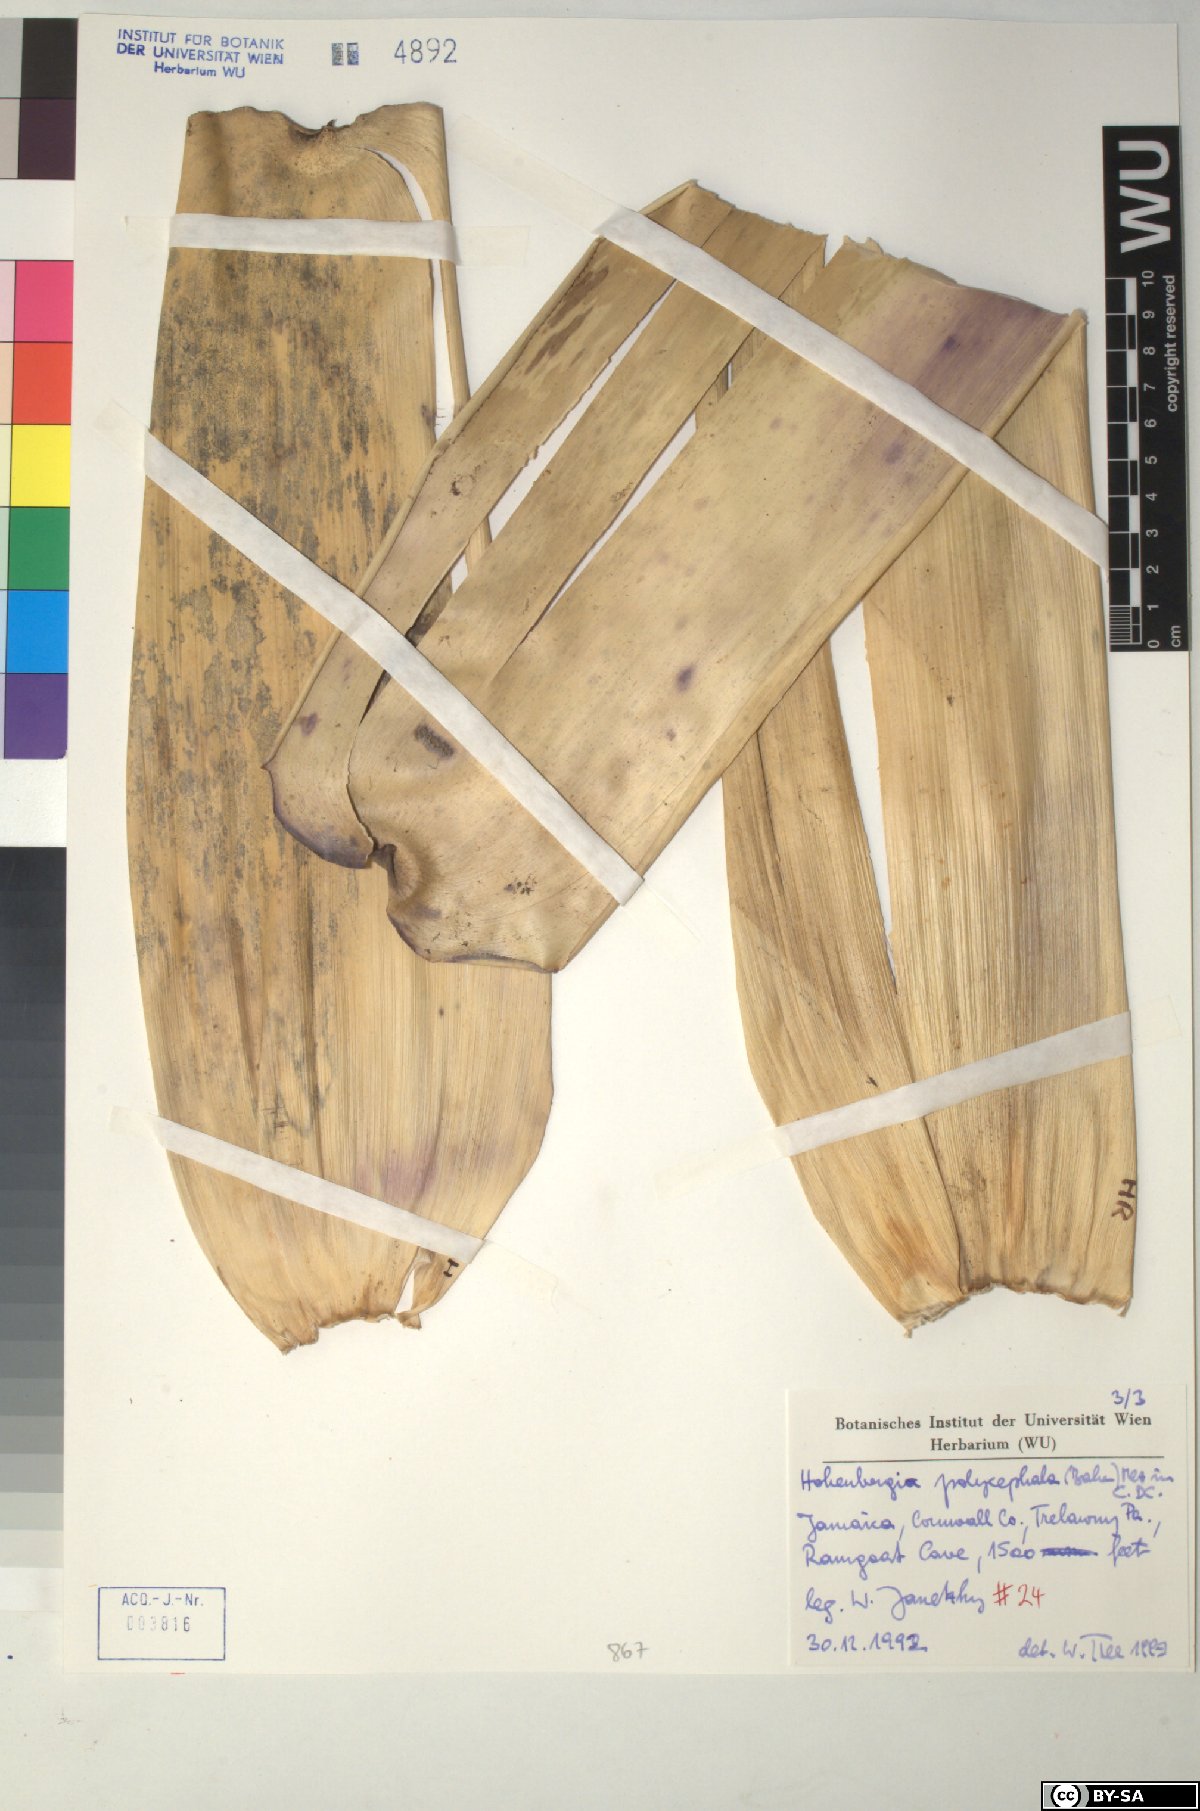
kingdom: Plantae
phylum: Tracheophyta
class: Liliopsida
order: Poales
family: Bromeliaceae
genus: Wittmackia
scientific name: Wittmackia polycephala
